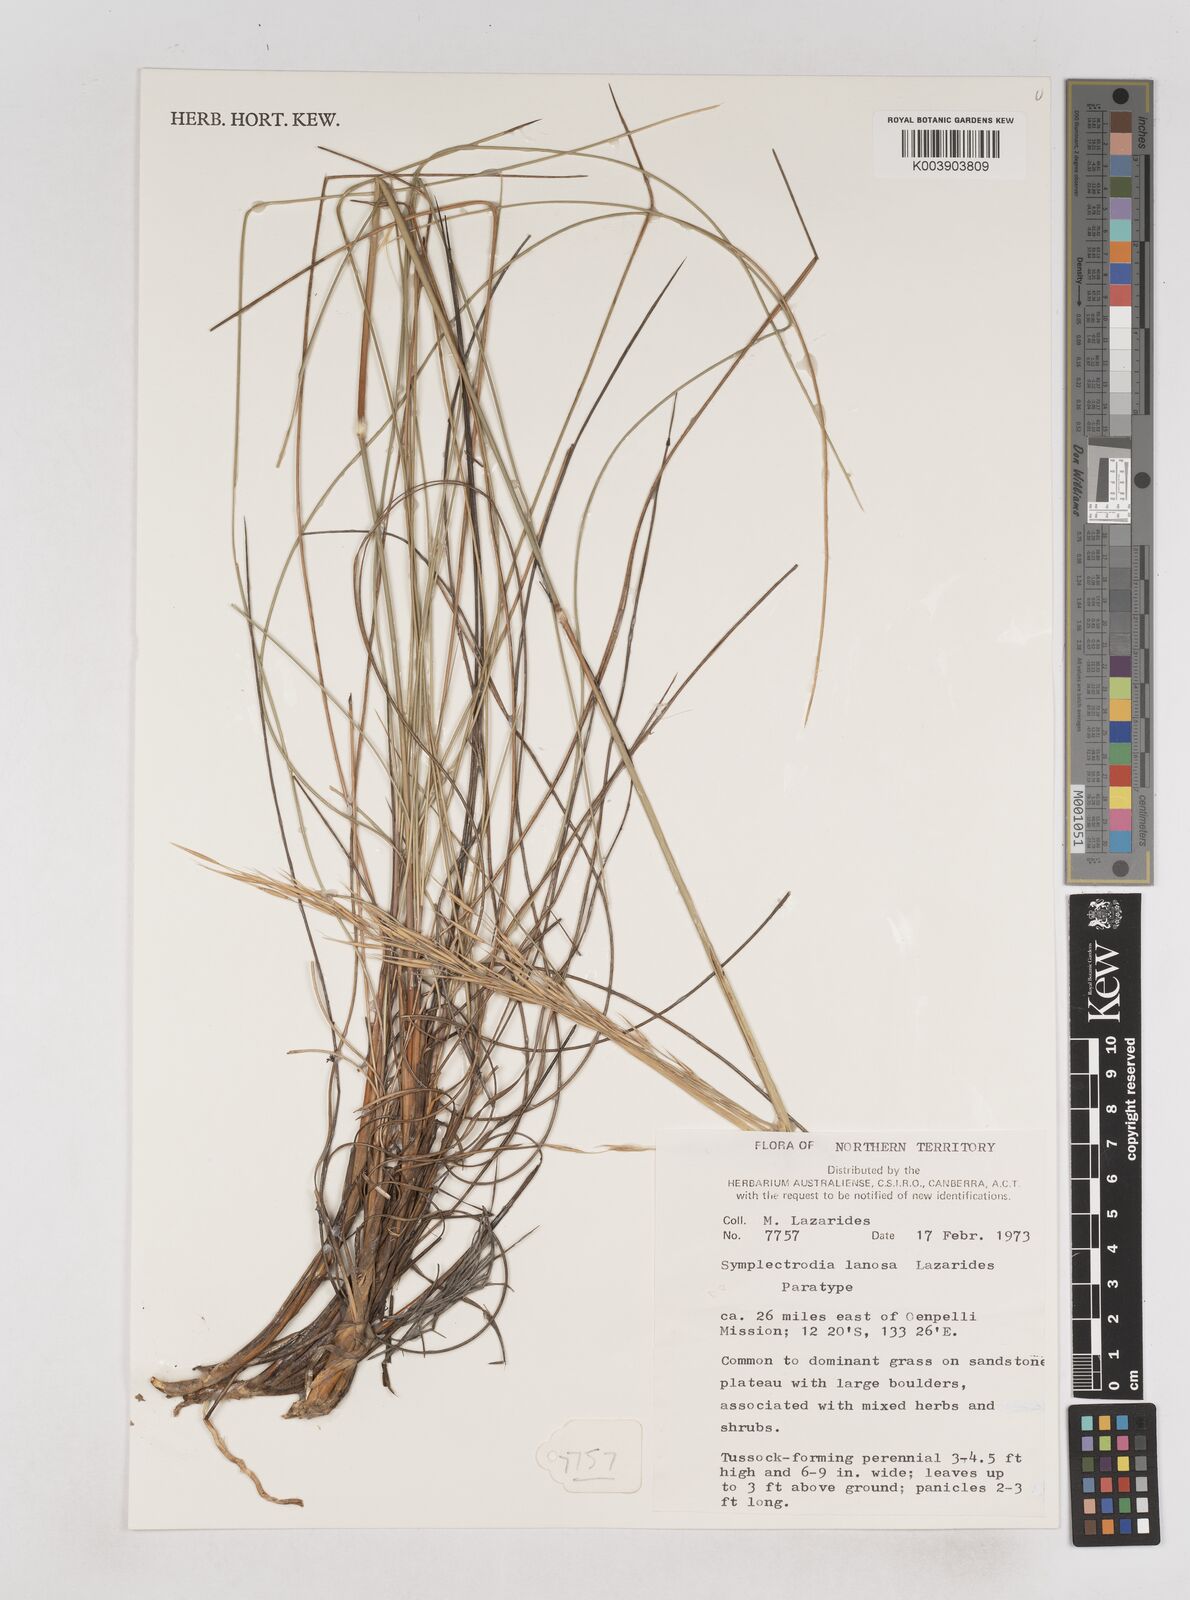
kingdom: Plantae
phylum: Tracheophyta
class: Liliopsida
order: Poales
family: Poaceae
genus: Triodia
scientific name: Triodia lanosa
